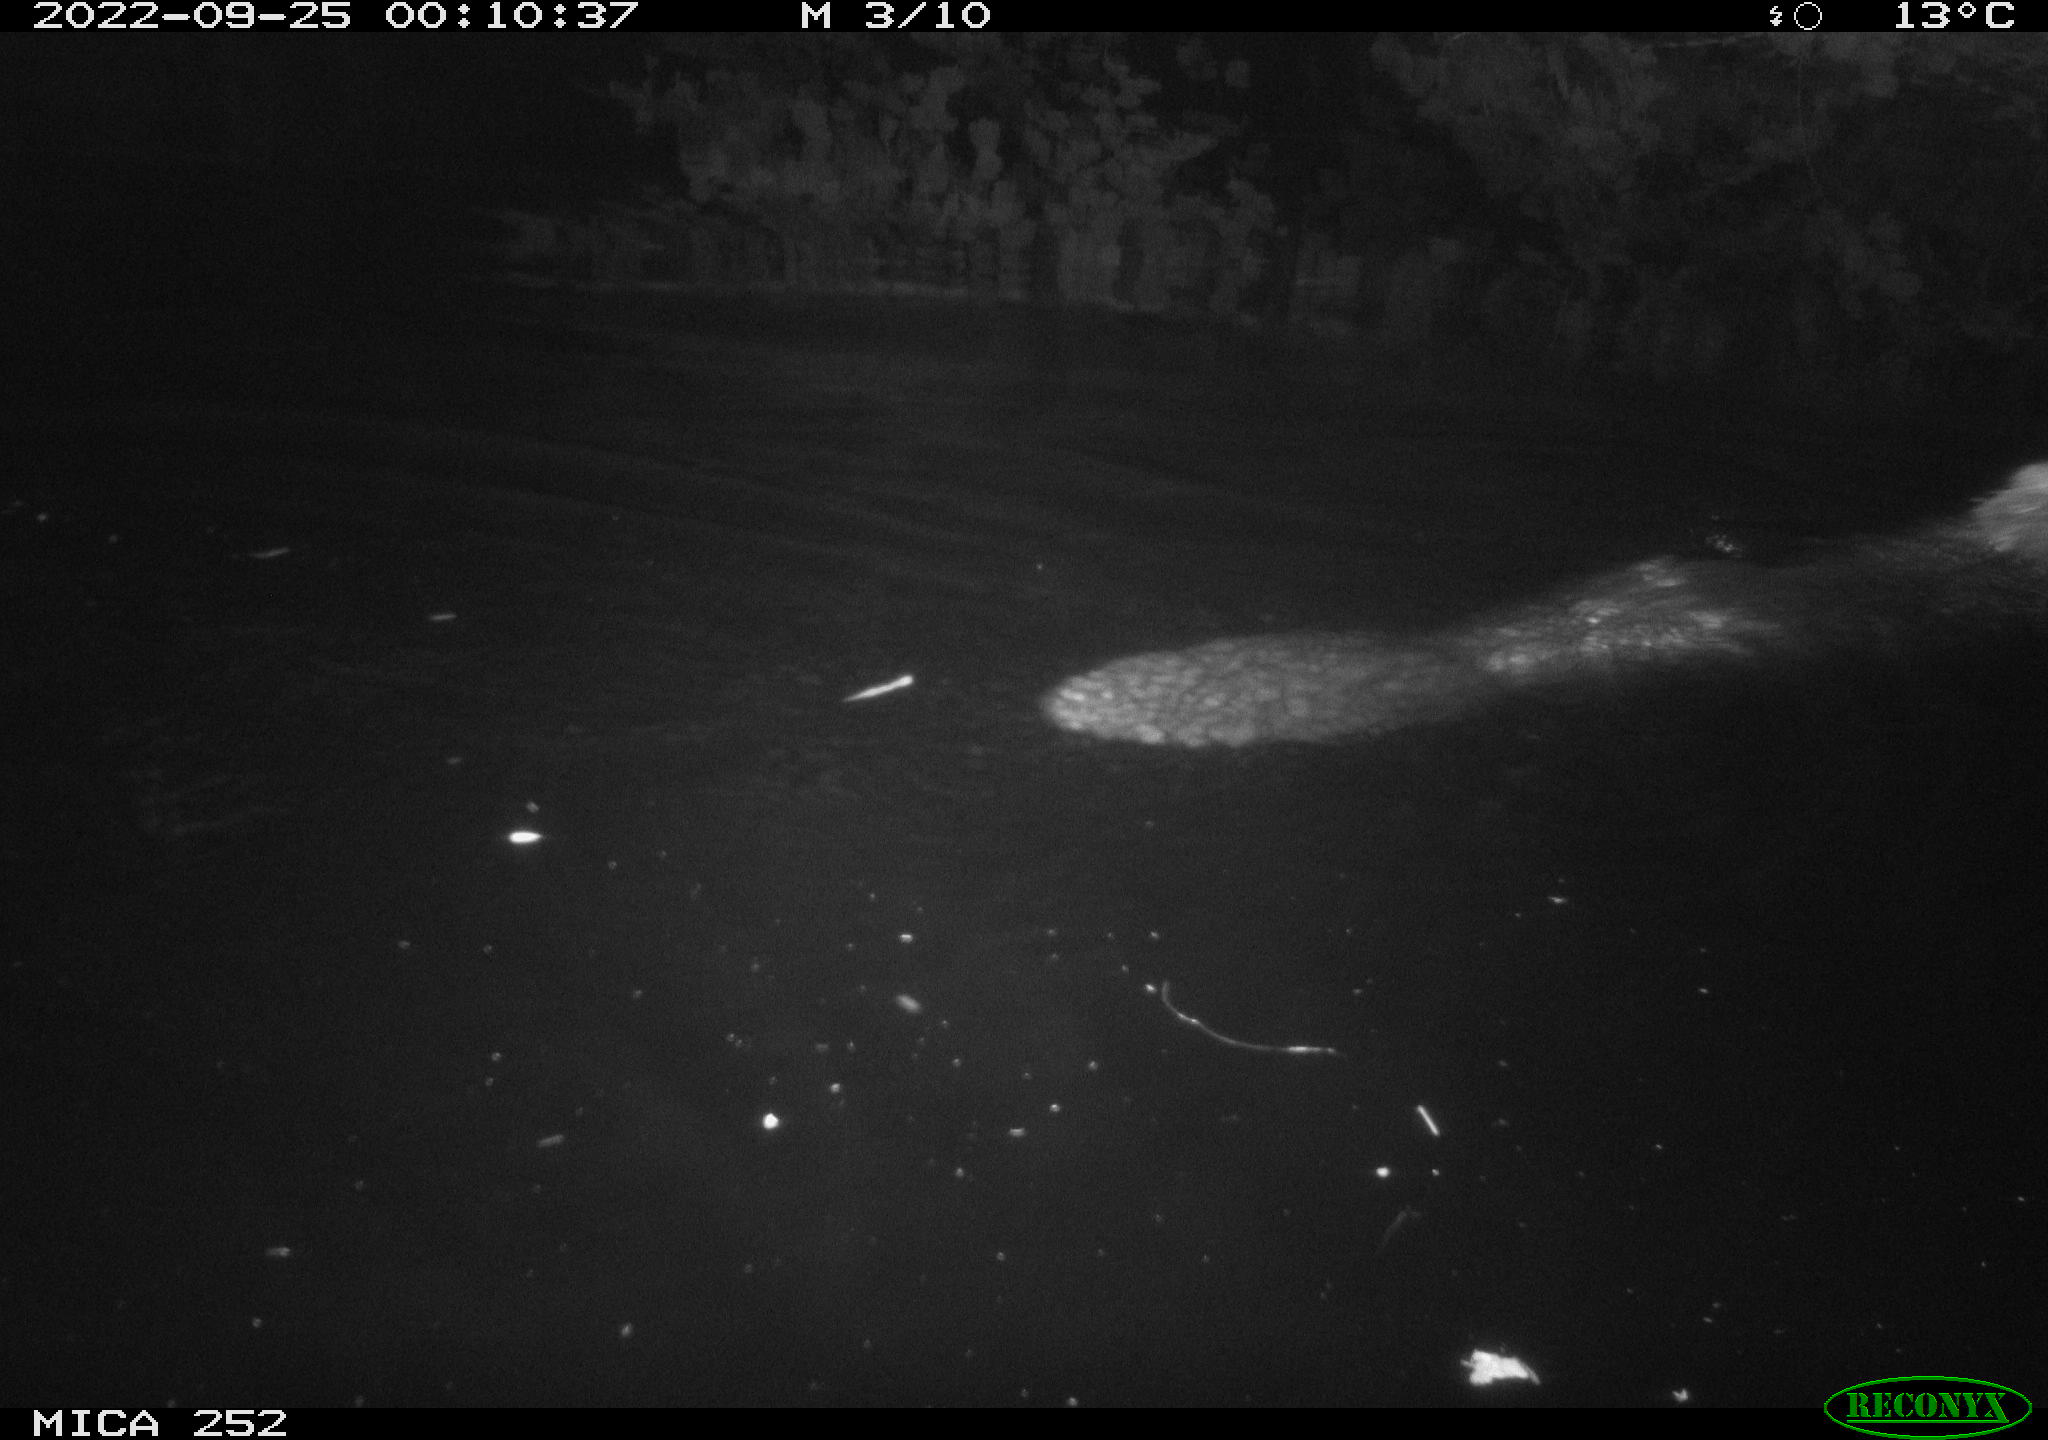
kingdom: Animalia
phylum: Chordata
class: Mammalia
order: Rodentia
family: Castoridae
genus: Castor
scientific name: Castor fiber
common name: Eurasian beaver
